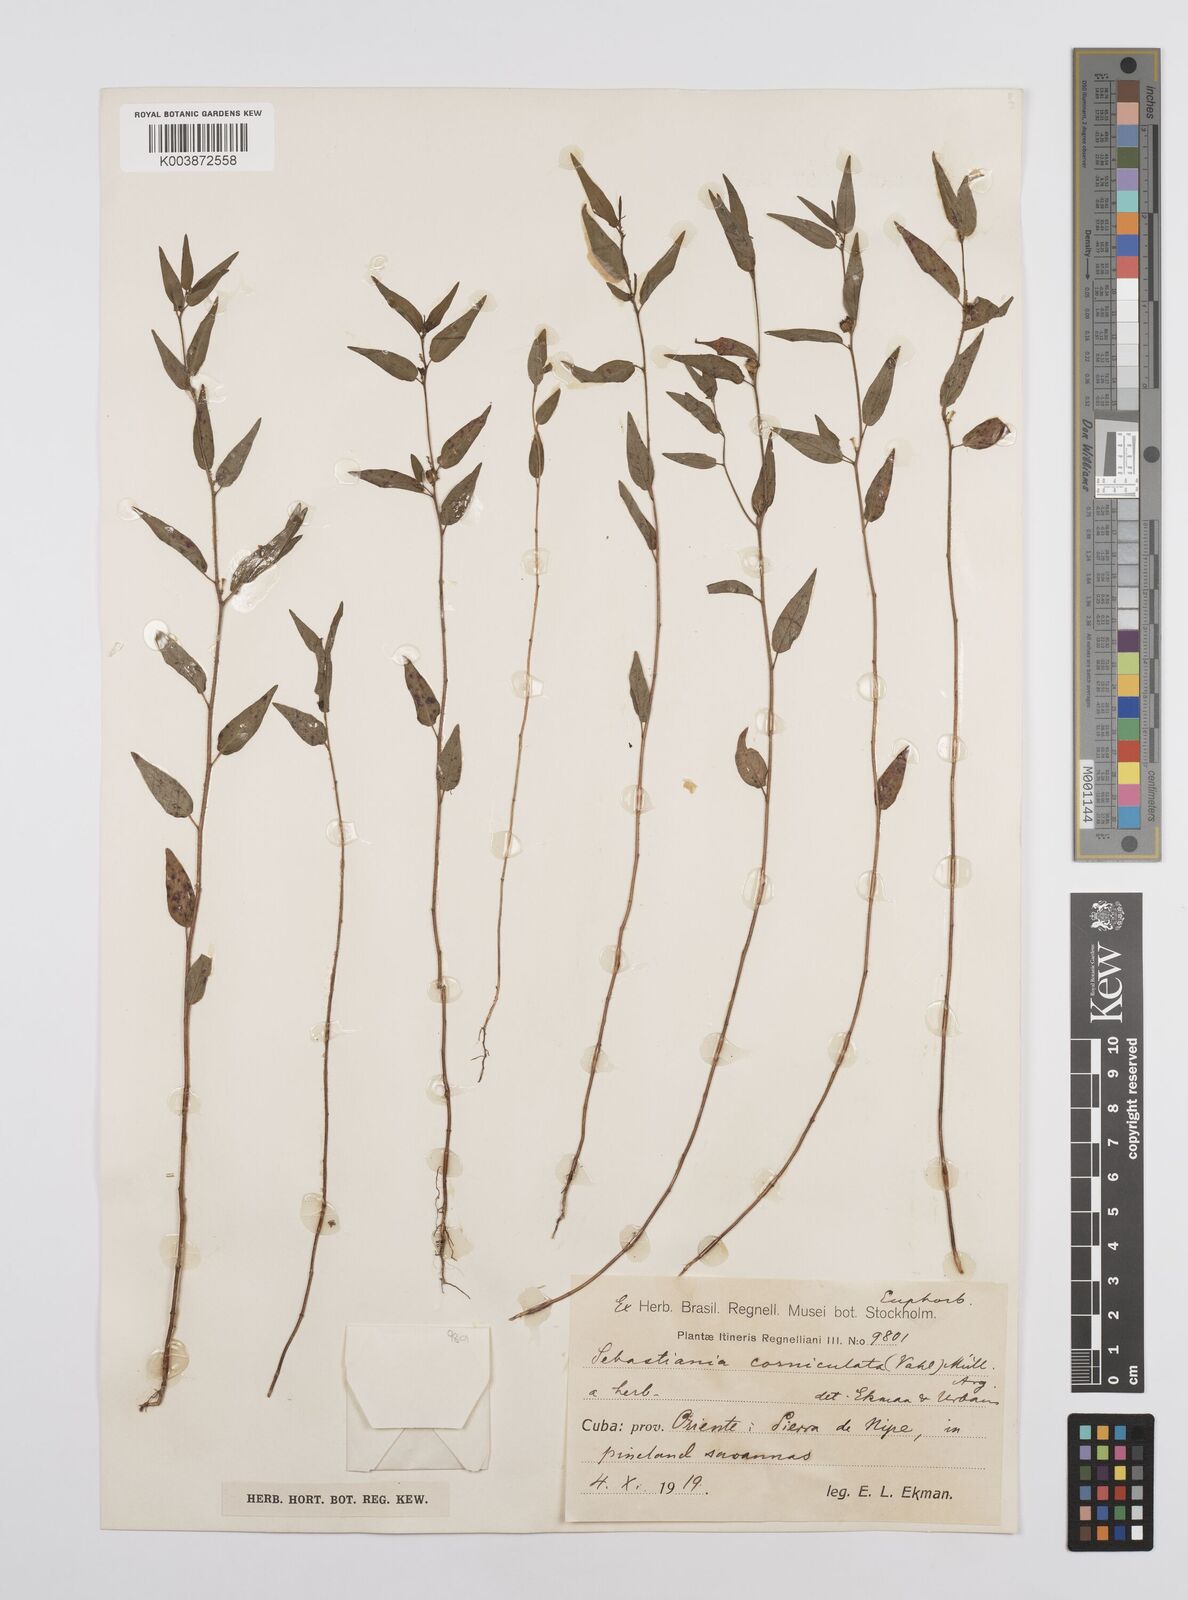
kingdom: Plantae
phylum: Tracheophyta
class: Magnoliopsida
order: Malpighiales
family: Euphorbiaceae
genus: Microstachys
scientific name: Microstachys corniculata
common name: Hato tejas
